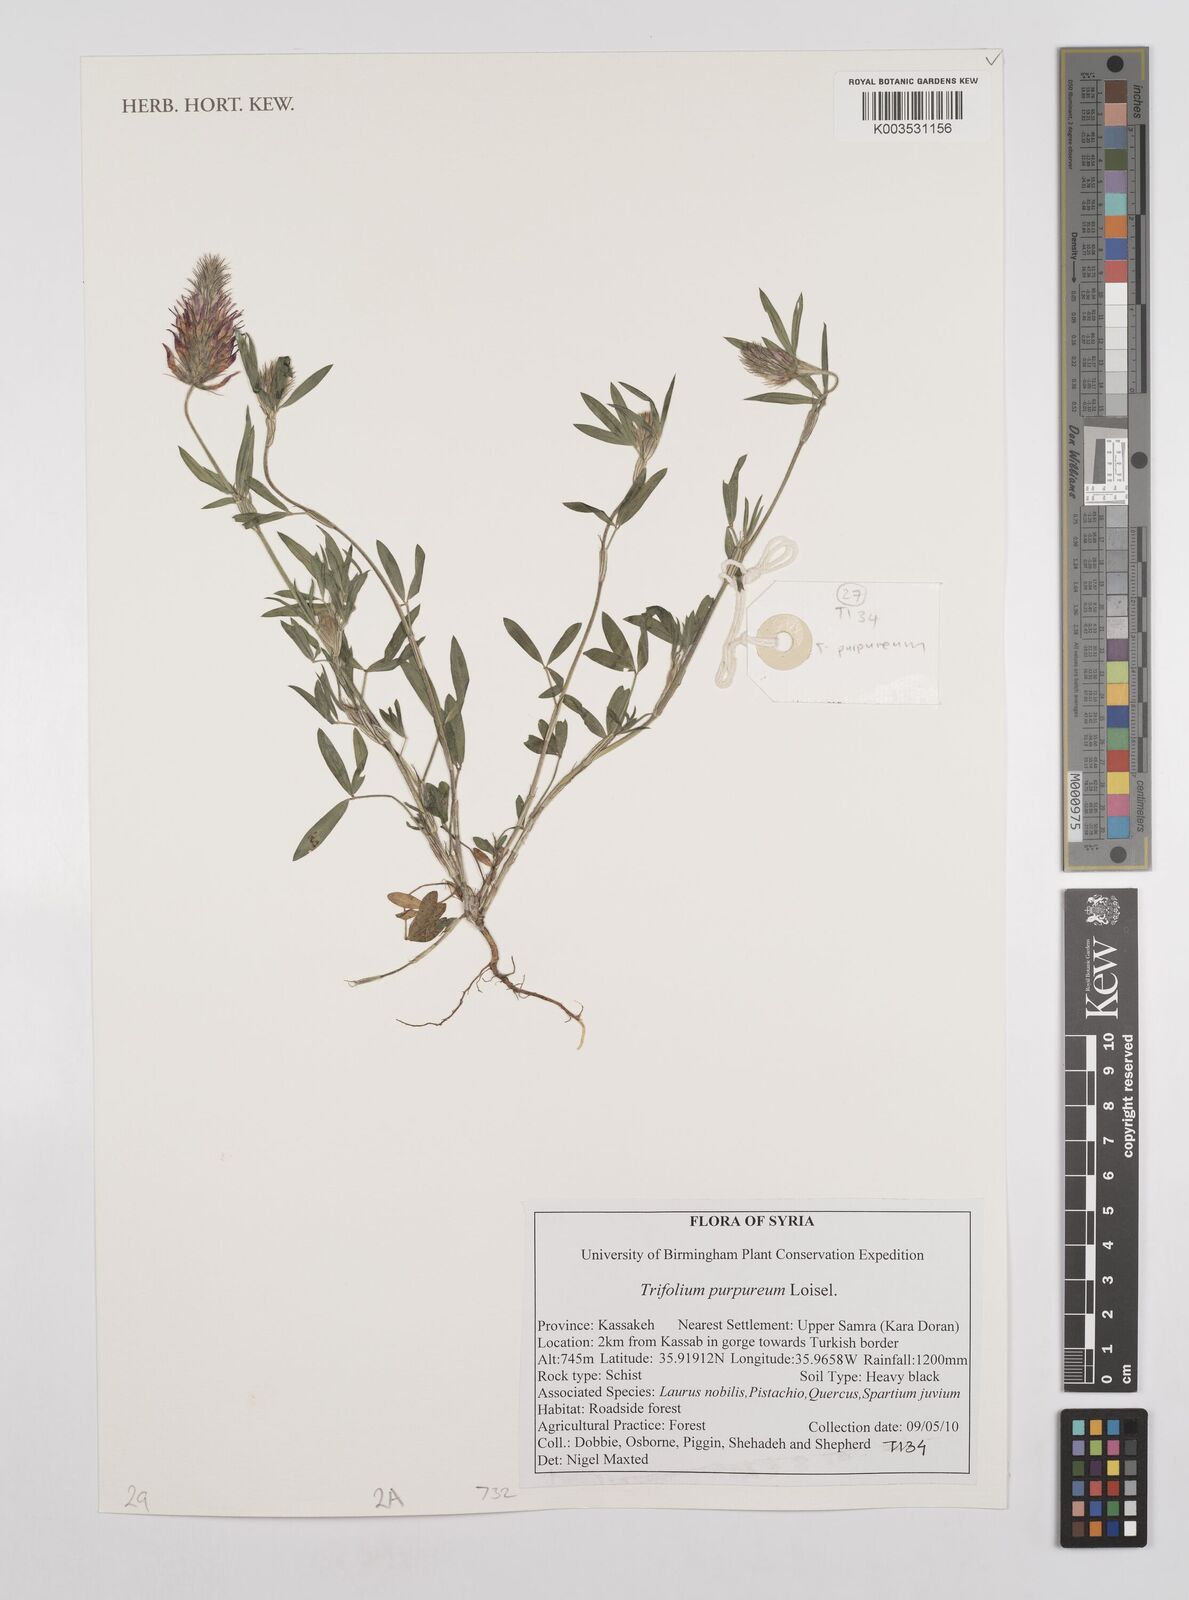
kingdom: Plantae
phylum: Tracheophyta
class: Magnoliopsida
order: Fabales
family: Fabaceae
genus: Trifolium
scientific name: Trifolium purpureum
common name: Purple clover
